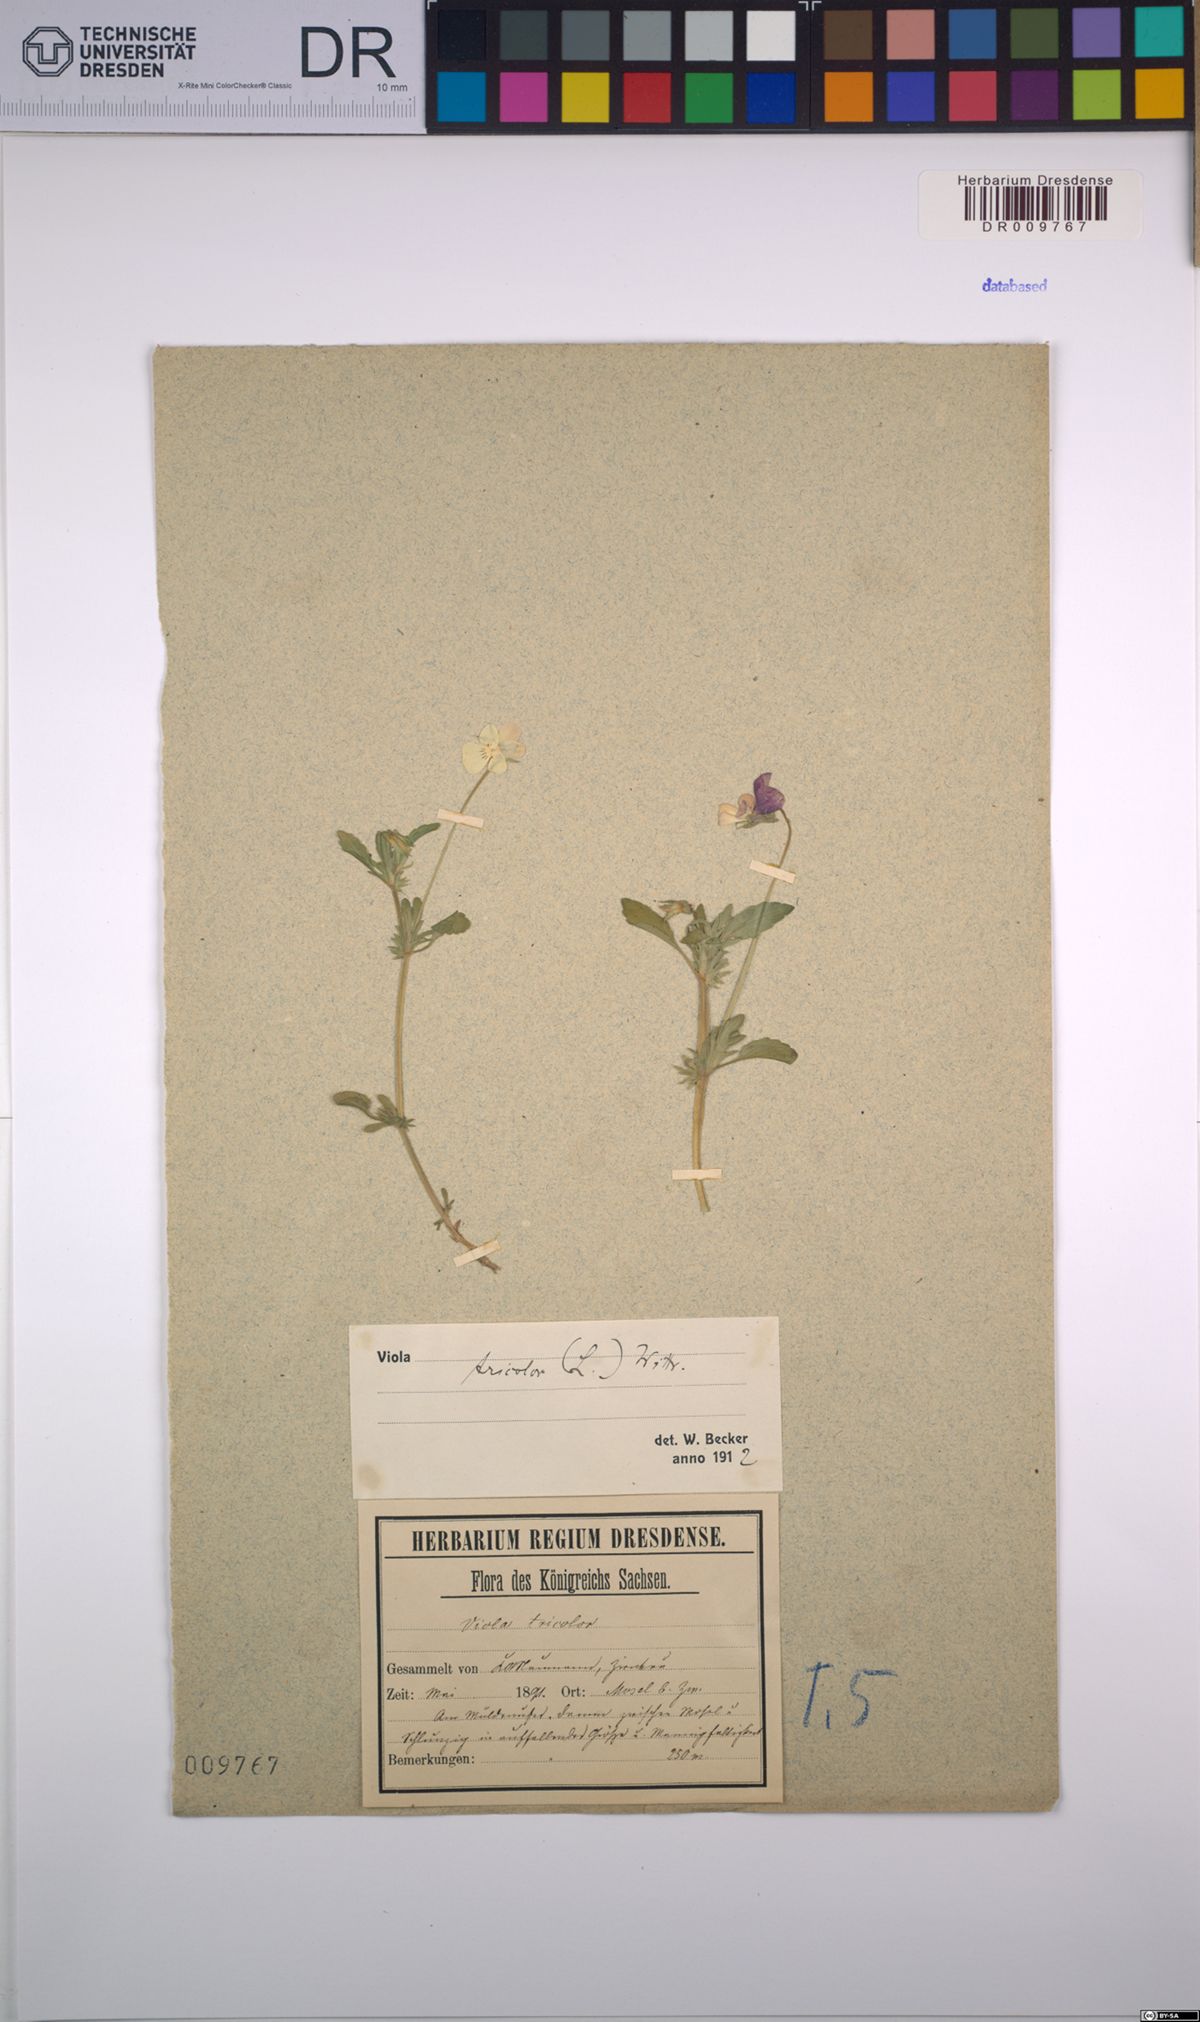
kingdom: Plantae
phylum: Tracheophyta
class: Magnoliopsida
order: Malpighiales
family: Violaceae
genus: Viola
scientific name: Viola tricolor
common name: Pansy
